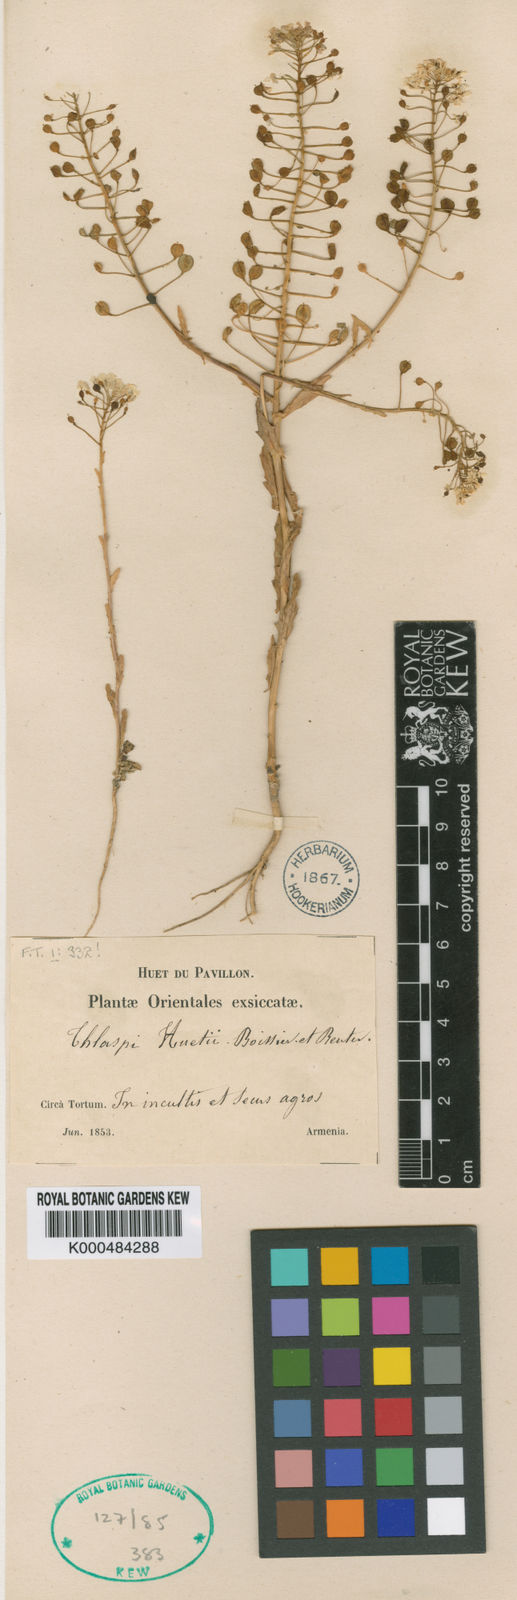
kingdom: Plantae
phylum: Tracheophyta
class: Magnoliopsida
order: Brassicales
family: Brassicaceae
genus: Thlaspi
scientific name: Thlaspi huetii
